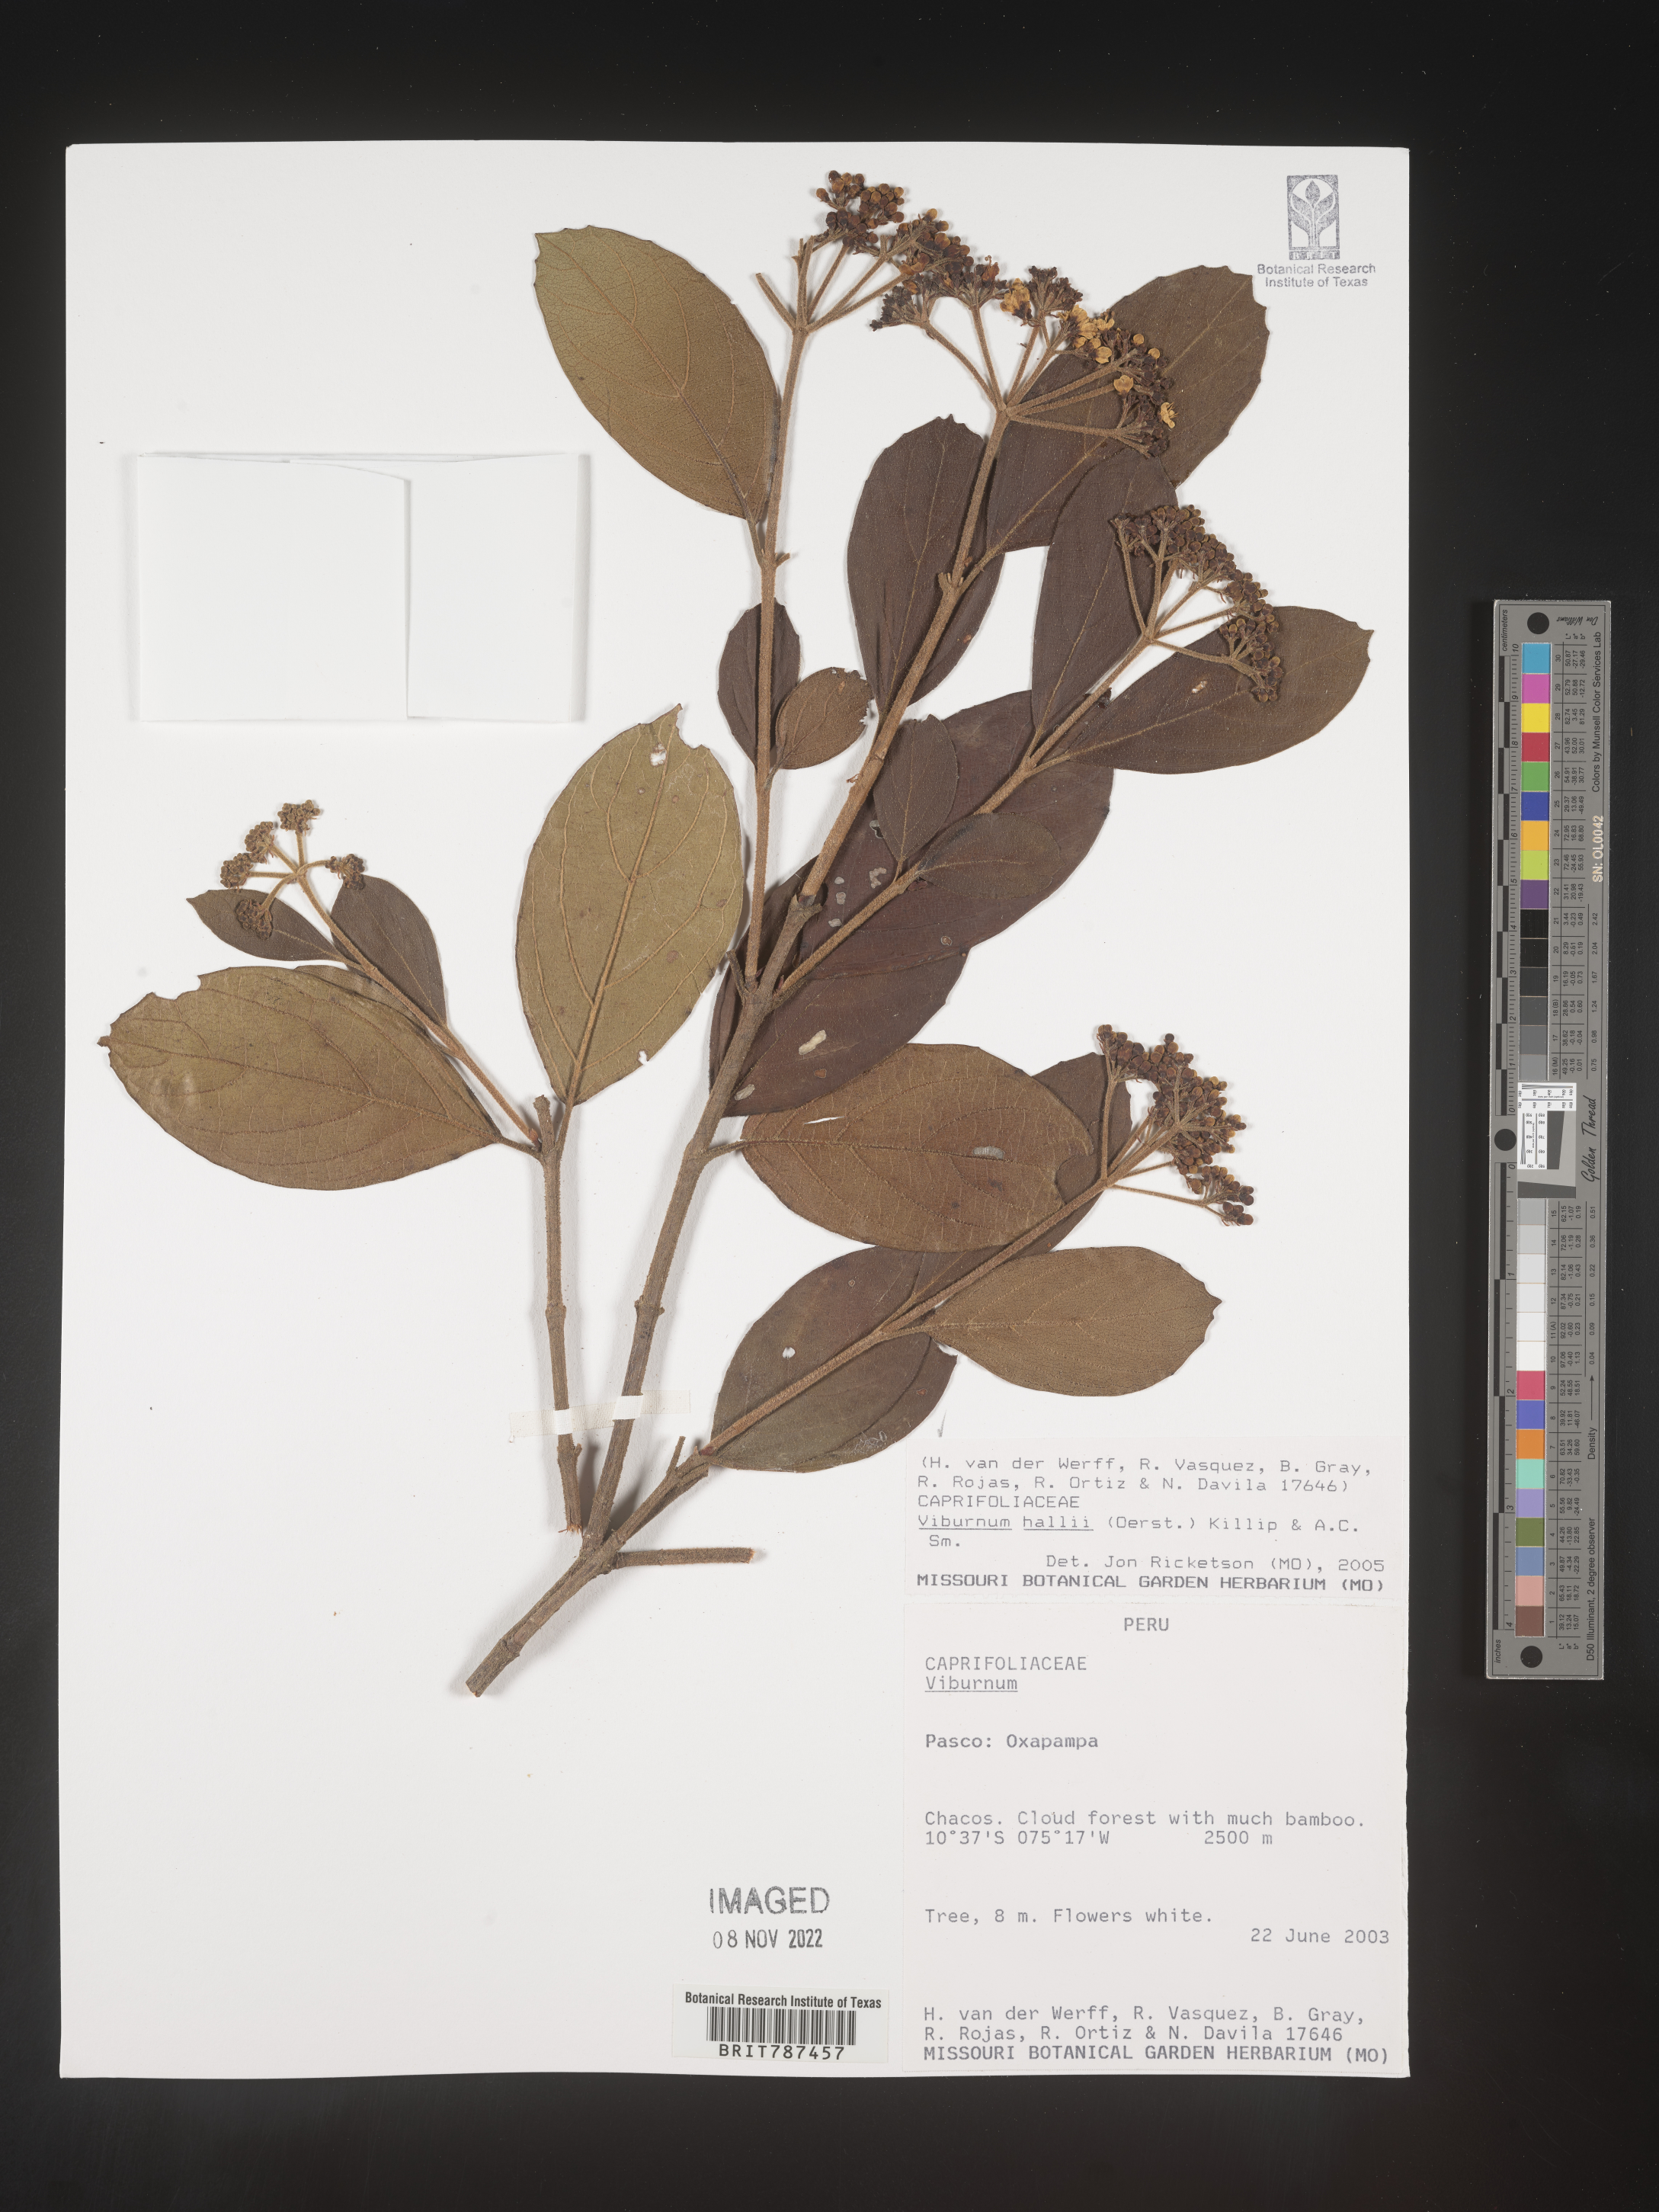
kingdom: Plantae
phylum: Tracheophyta
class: Magnoliopsida
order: Dipsacales
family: Viburnaceae
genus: Viburnum
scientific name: Viburnum
